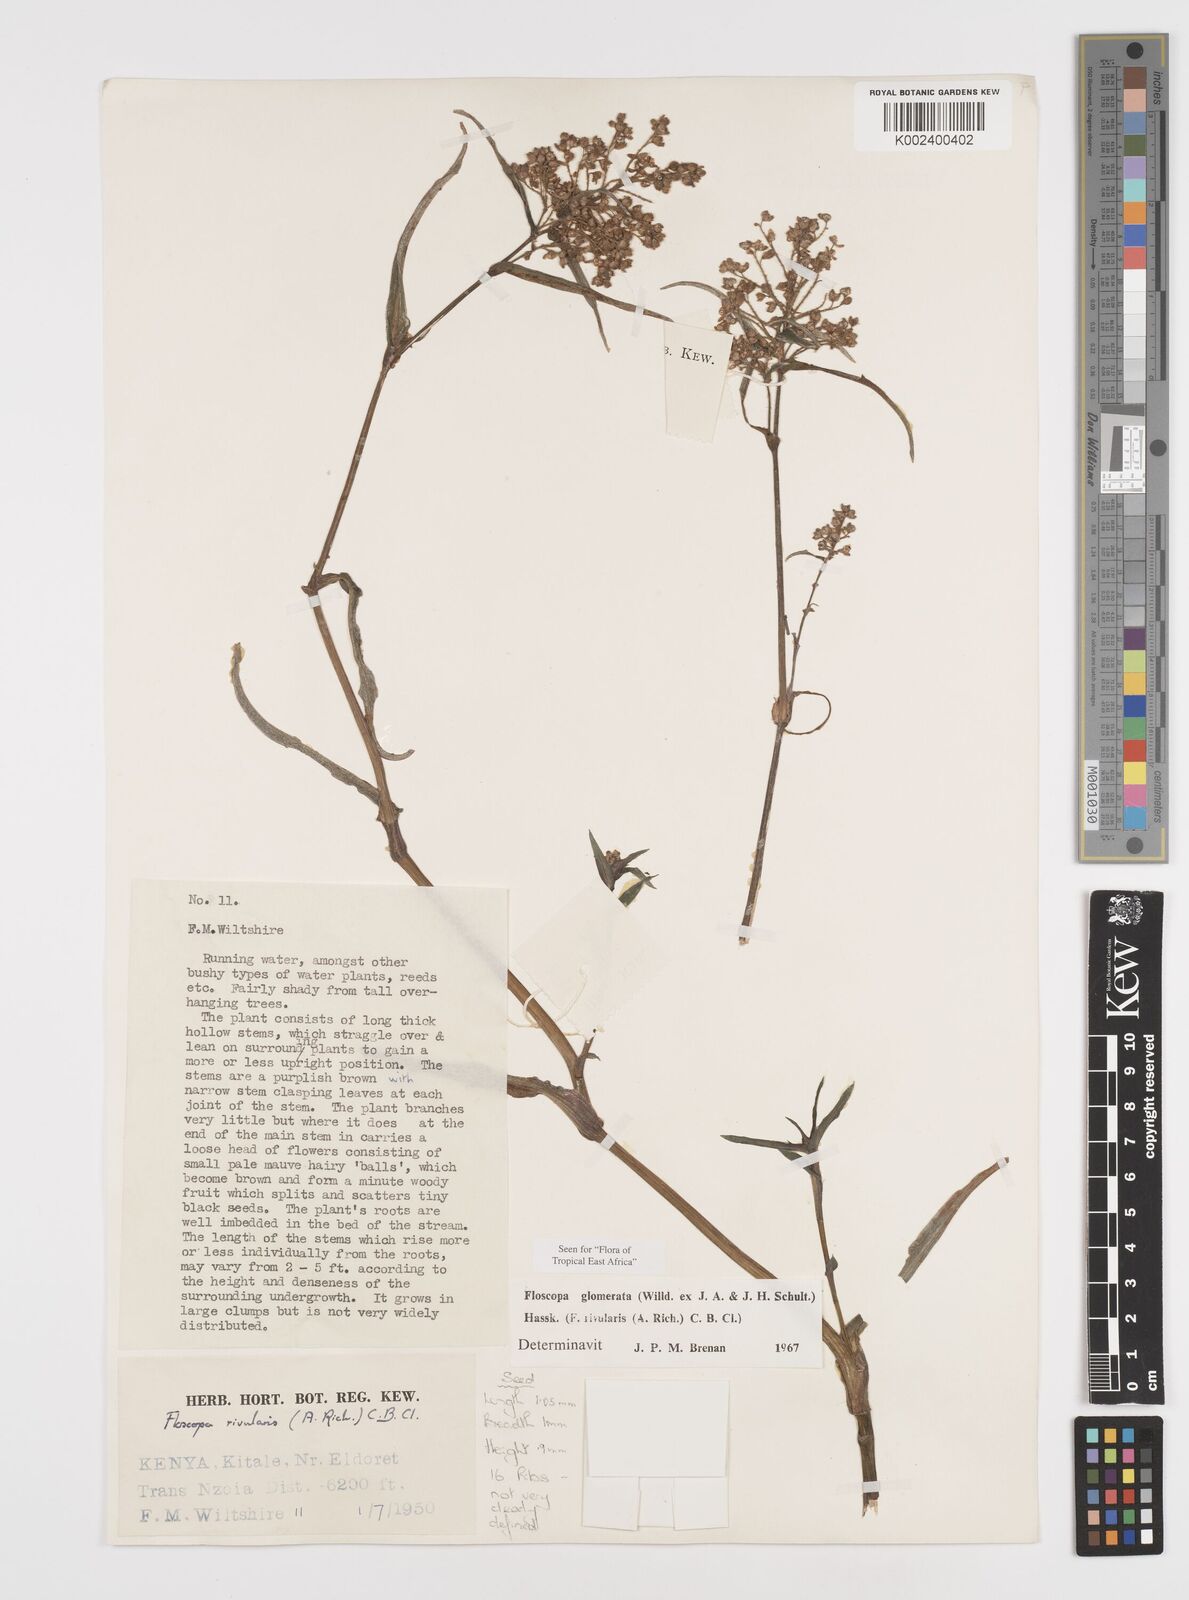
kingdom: Plantae
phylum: Tracheophyta
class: Liliopsida
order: Commelinales
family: Commelinaceae
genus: Floscopa
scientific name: Floscopa glomerata
